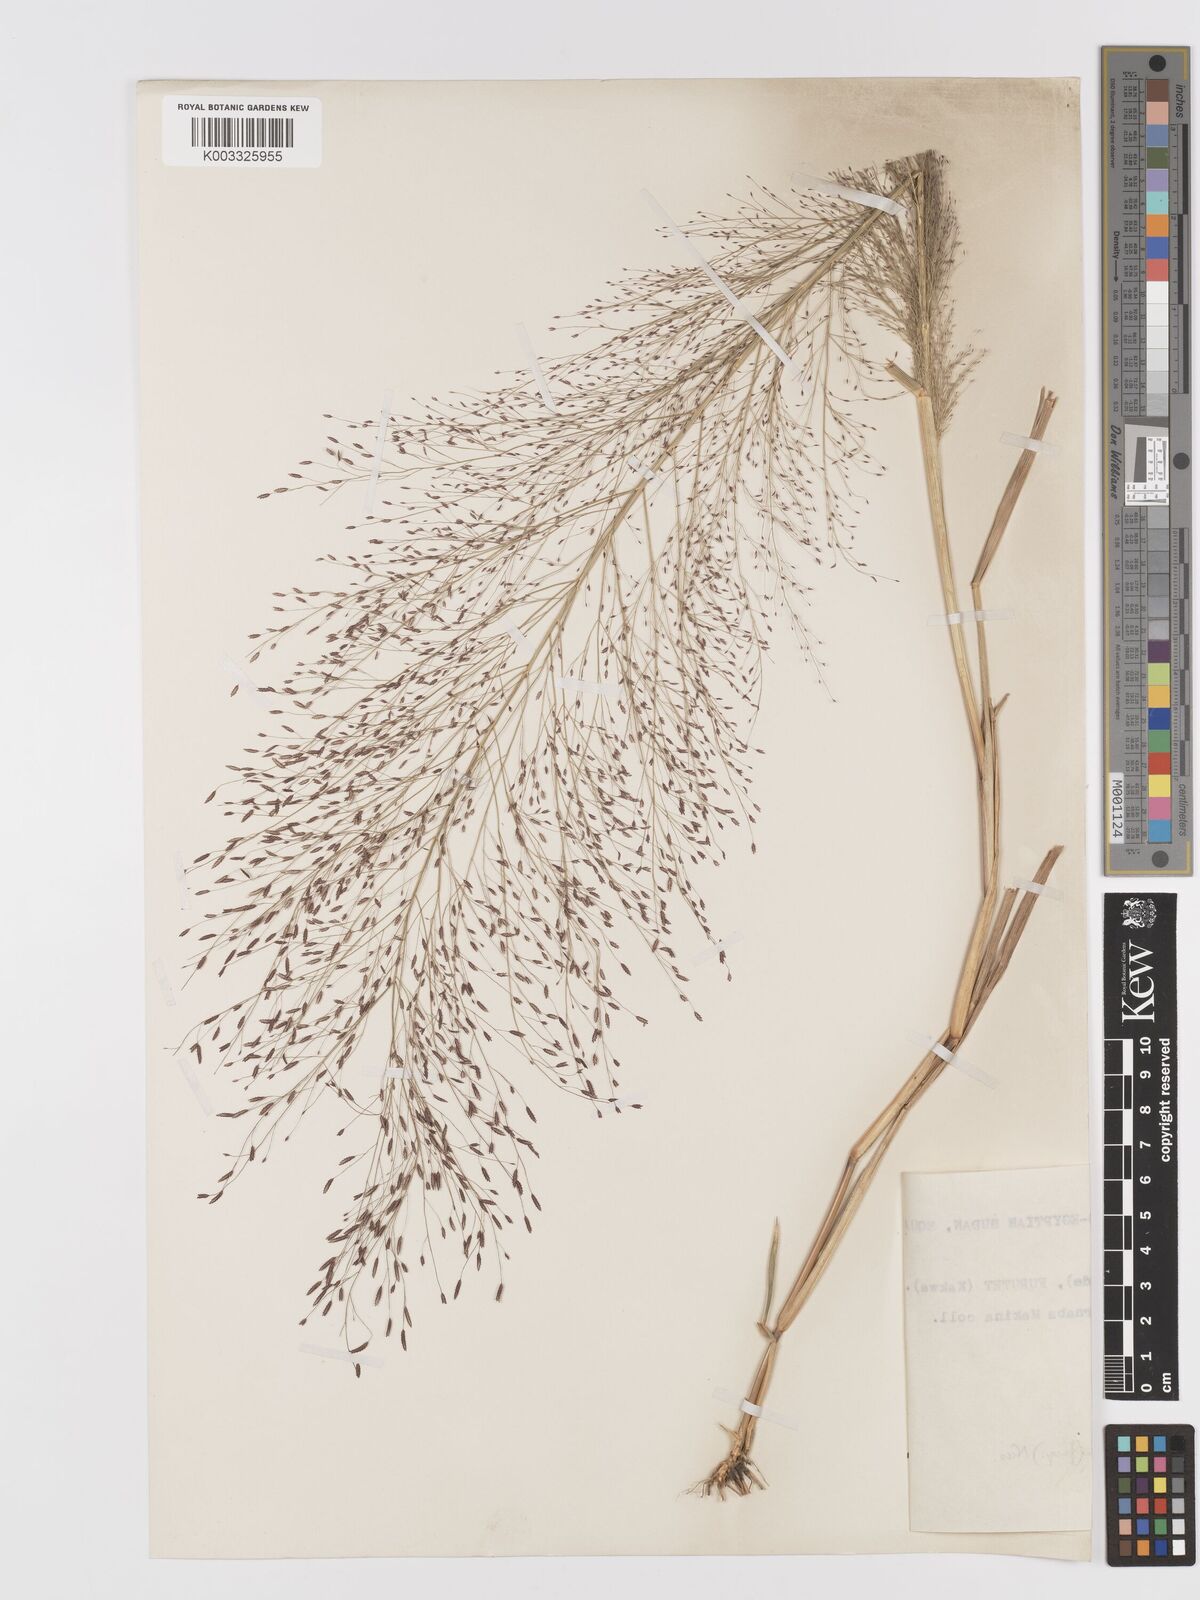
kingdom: Plantae
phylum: Tracheophyta
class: Liliopsida
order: Poales
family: Poaceae
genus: Eragrostis
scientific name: Eragrostis aspera
